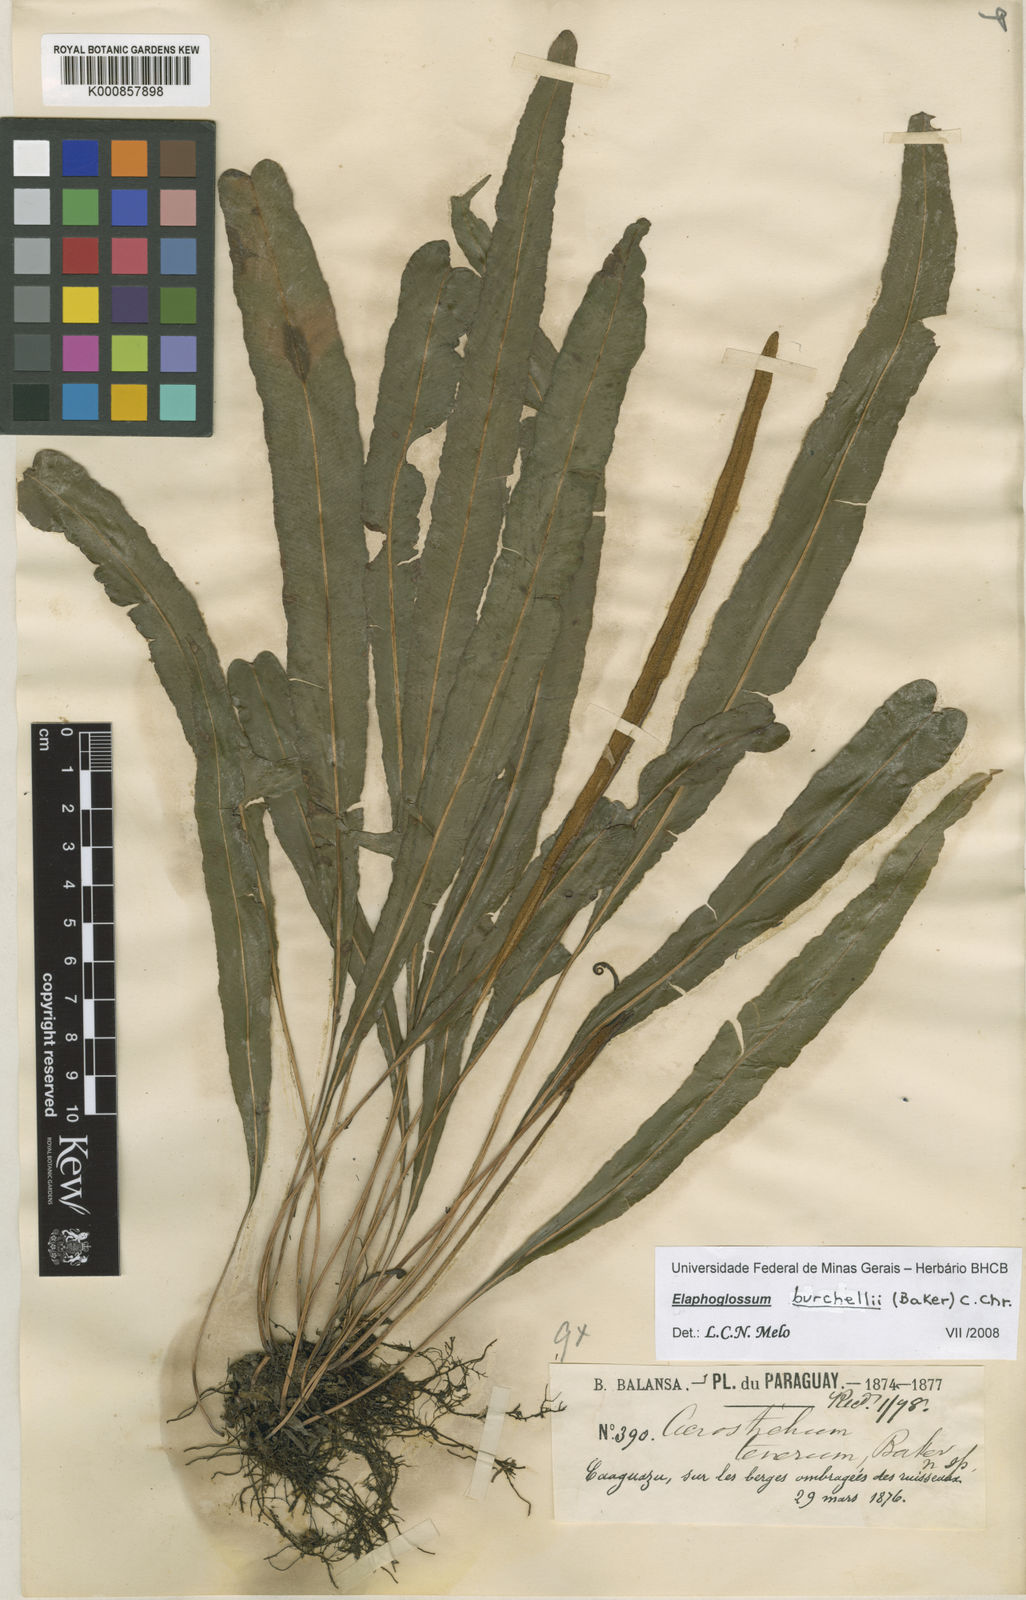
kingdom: Plantae
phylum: Tracheophyta
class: Polypodiopsida
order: Polypodiales
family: Dryopteridaceae
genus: Elaphoglossum
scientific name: Elaphoglossum burchellii
